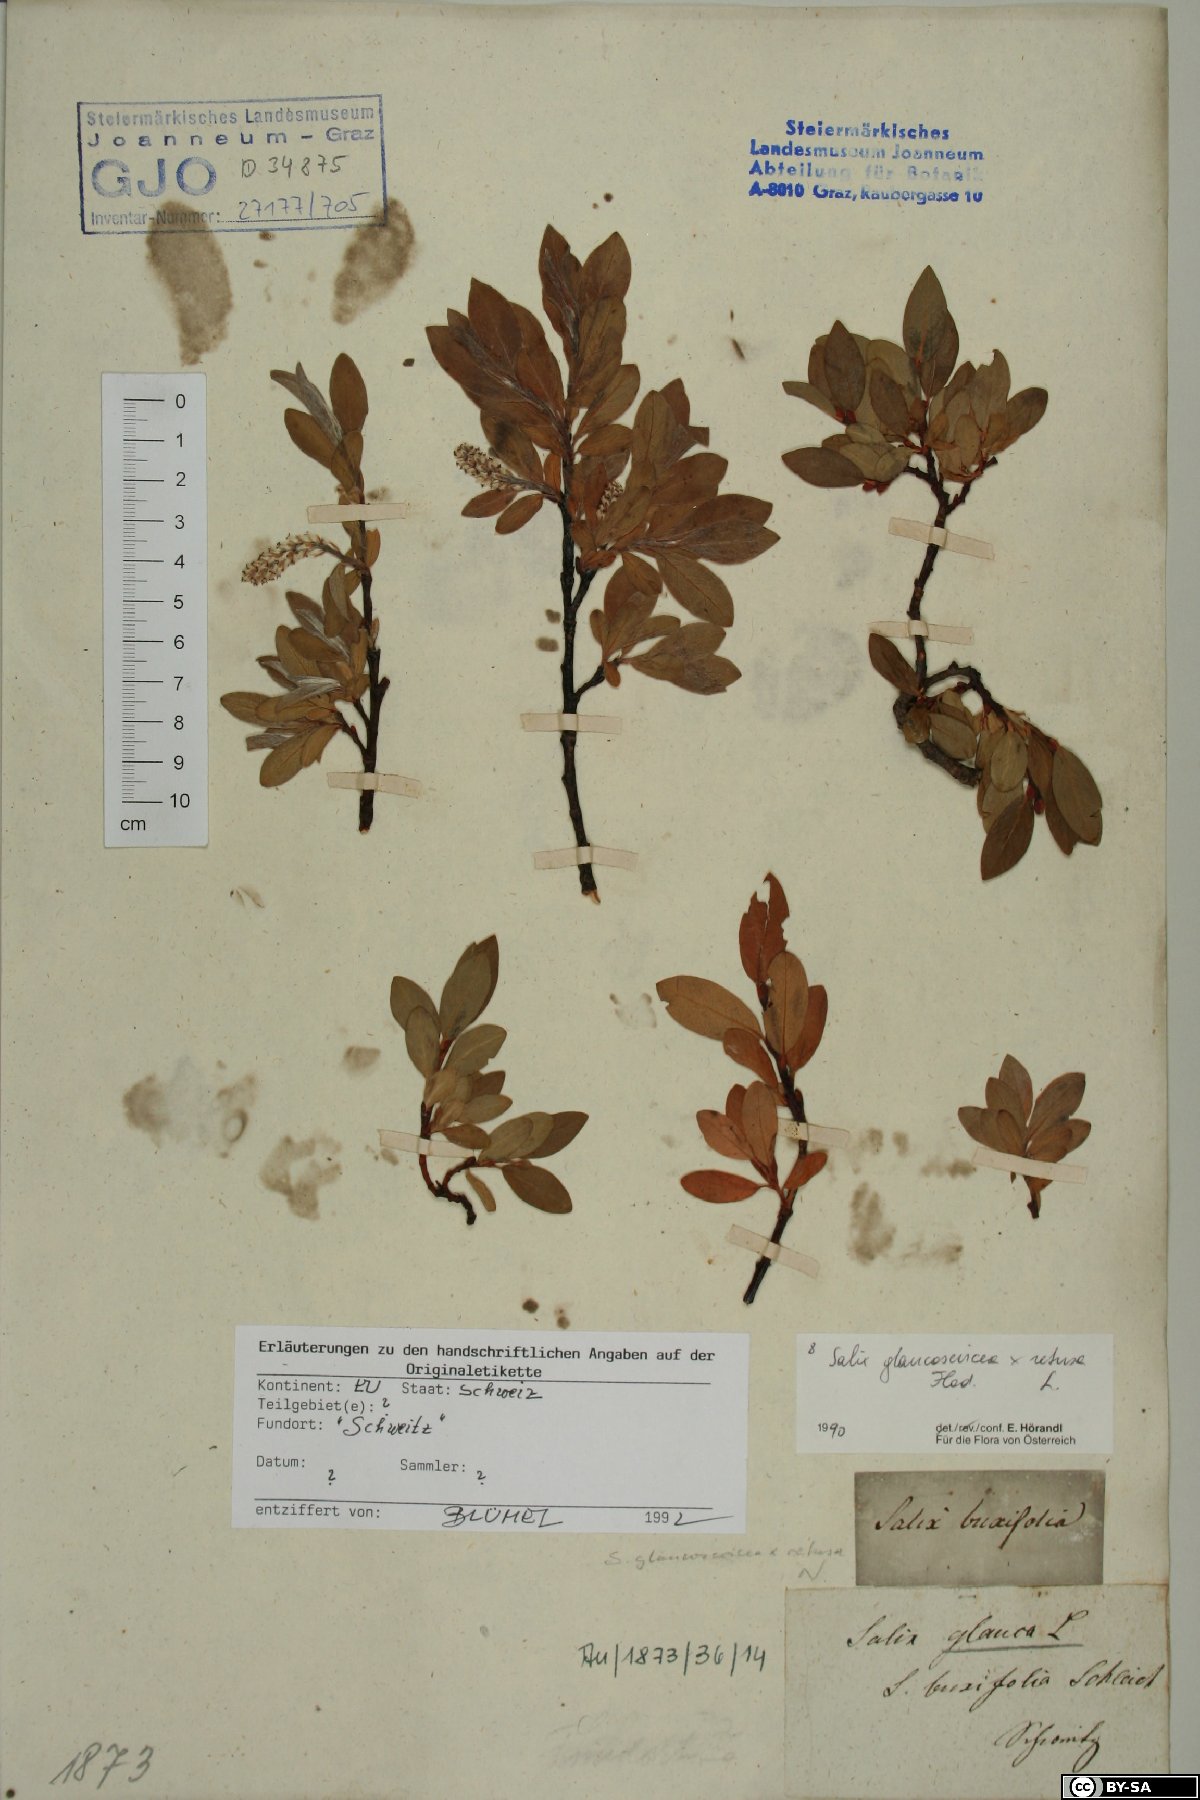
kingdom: Plantae
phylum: Tracheophyta
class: Magnoliopsida
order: Malpighiales
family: Salicaceae
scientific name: Salicaceae
